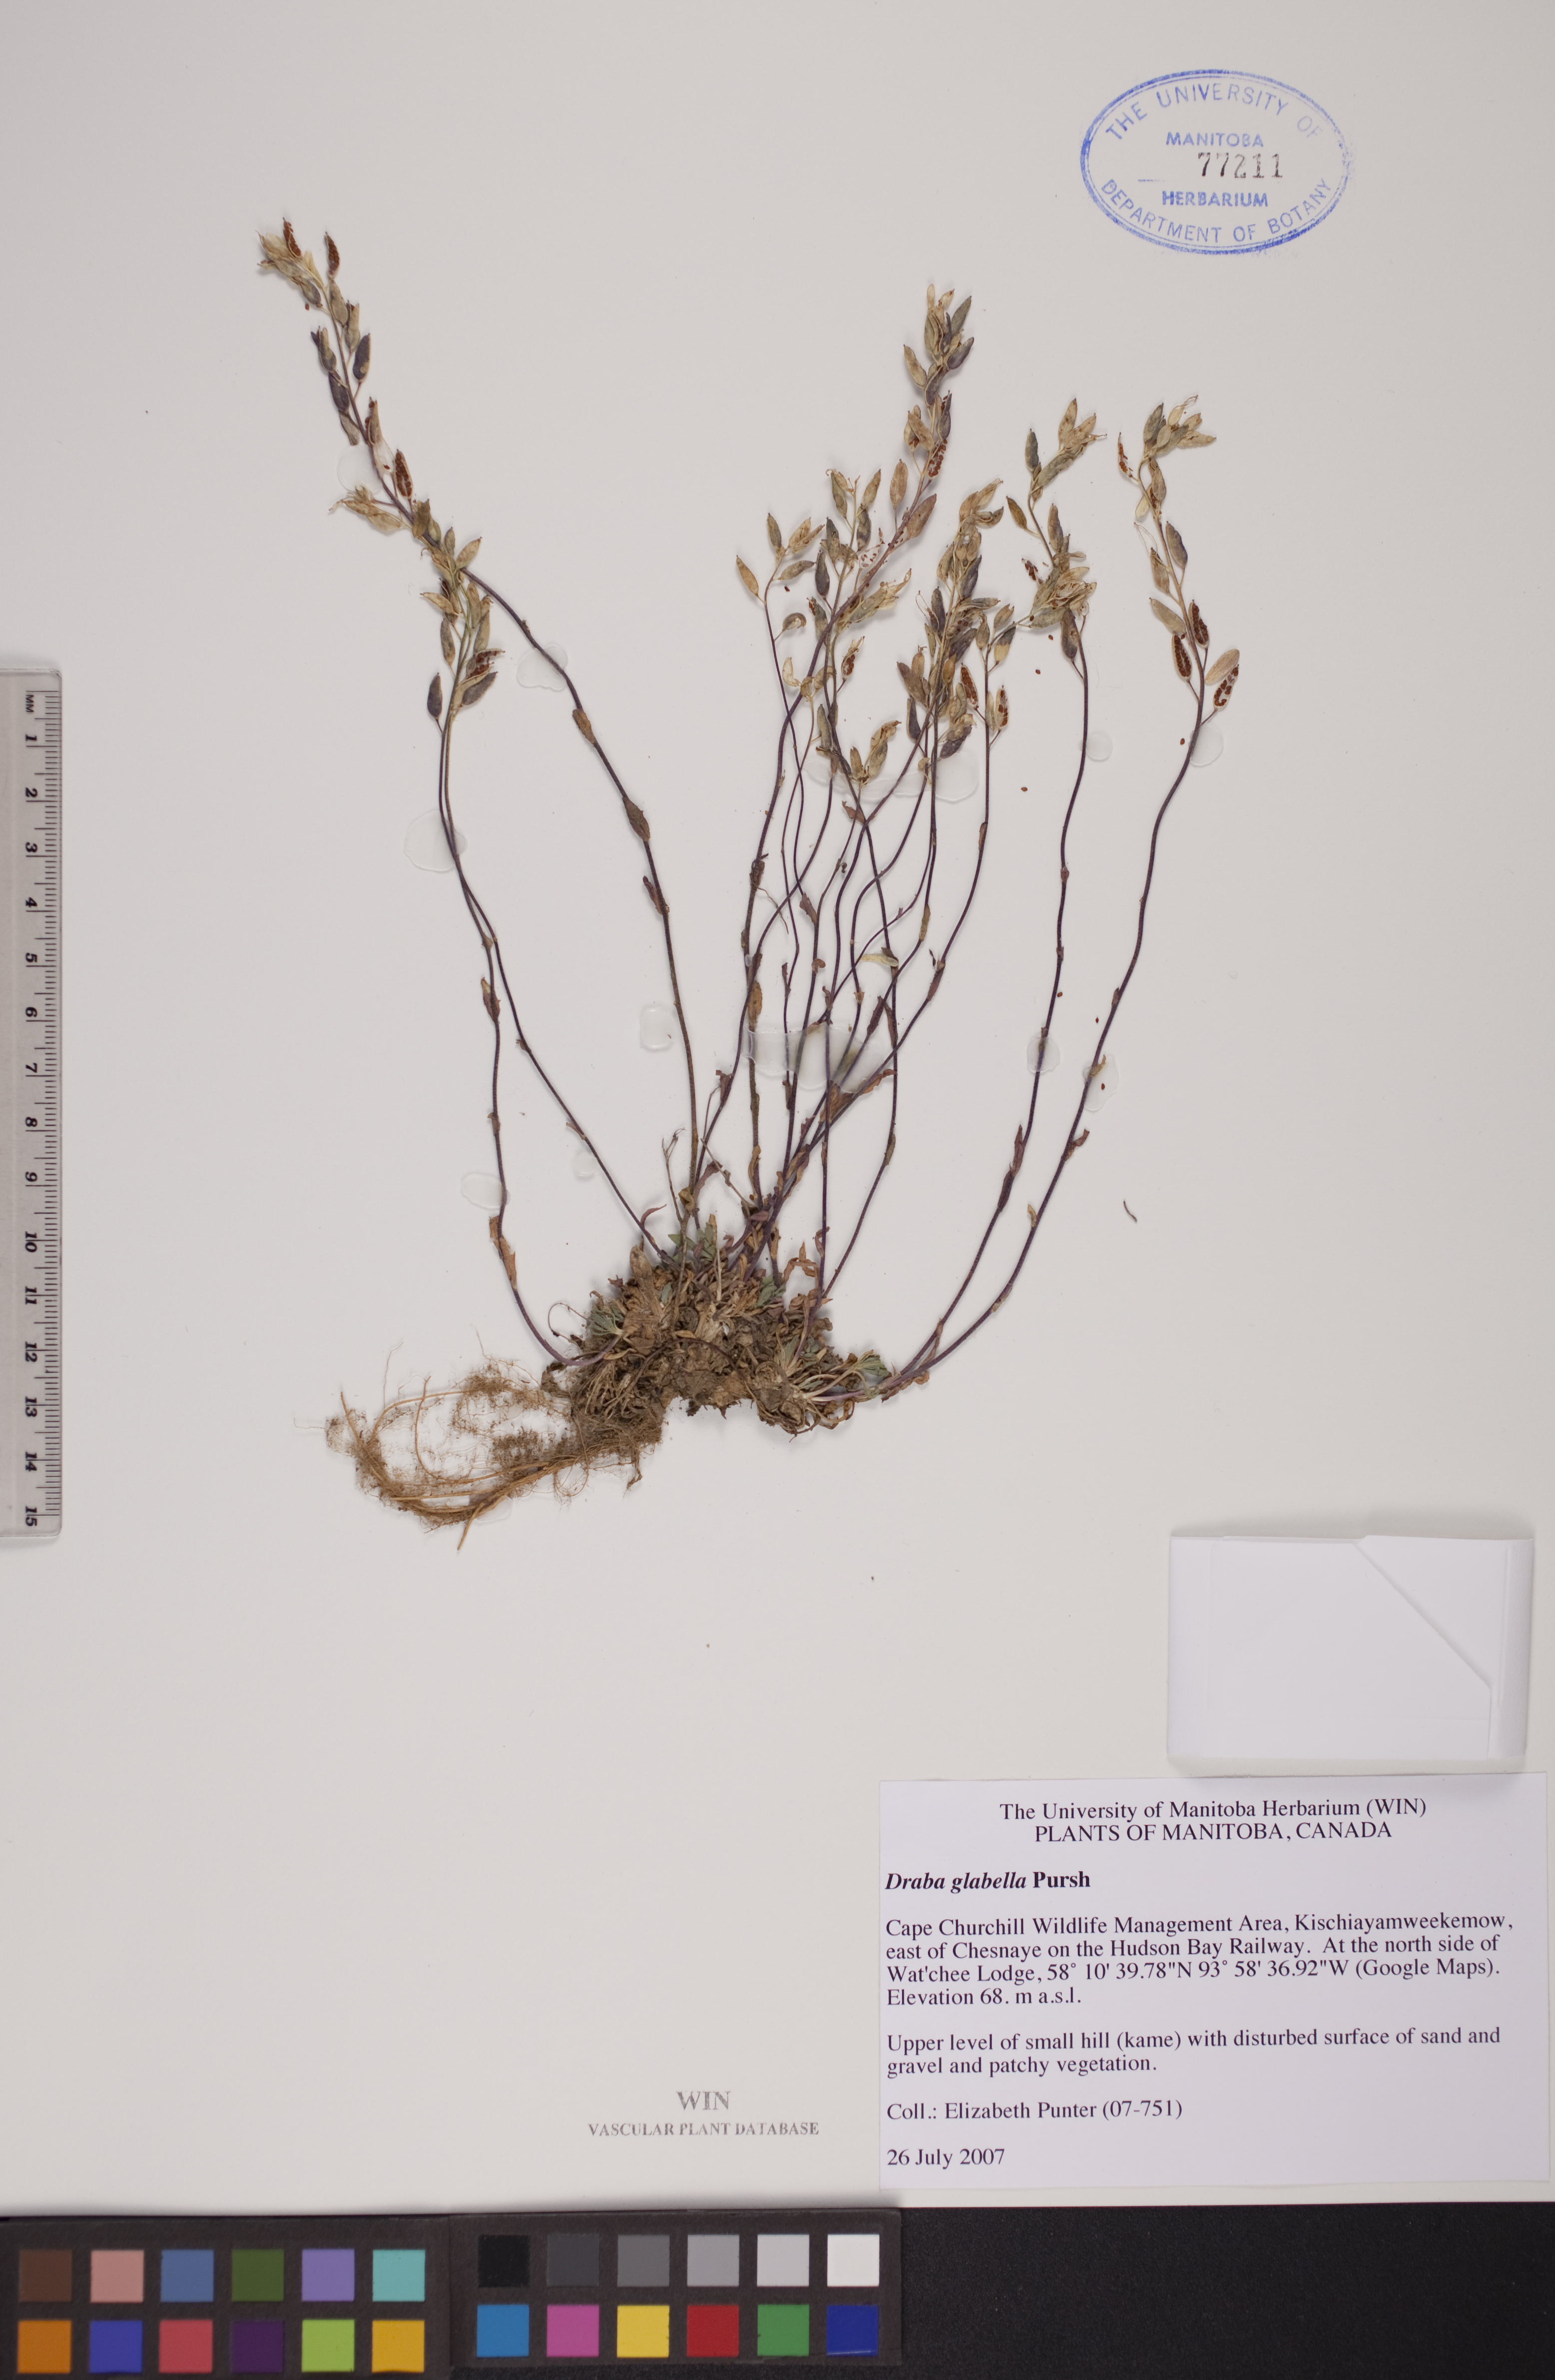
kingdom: Plantae
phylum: Tracheophyta
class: Magnoliopsida
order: Brassicales
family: Brassicaceae
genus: Draba
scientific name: Draba glabella
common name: Glaucous draba
